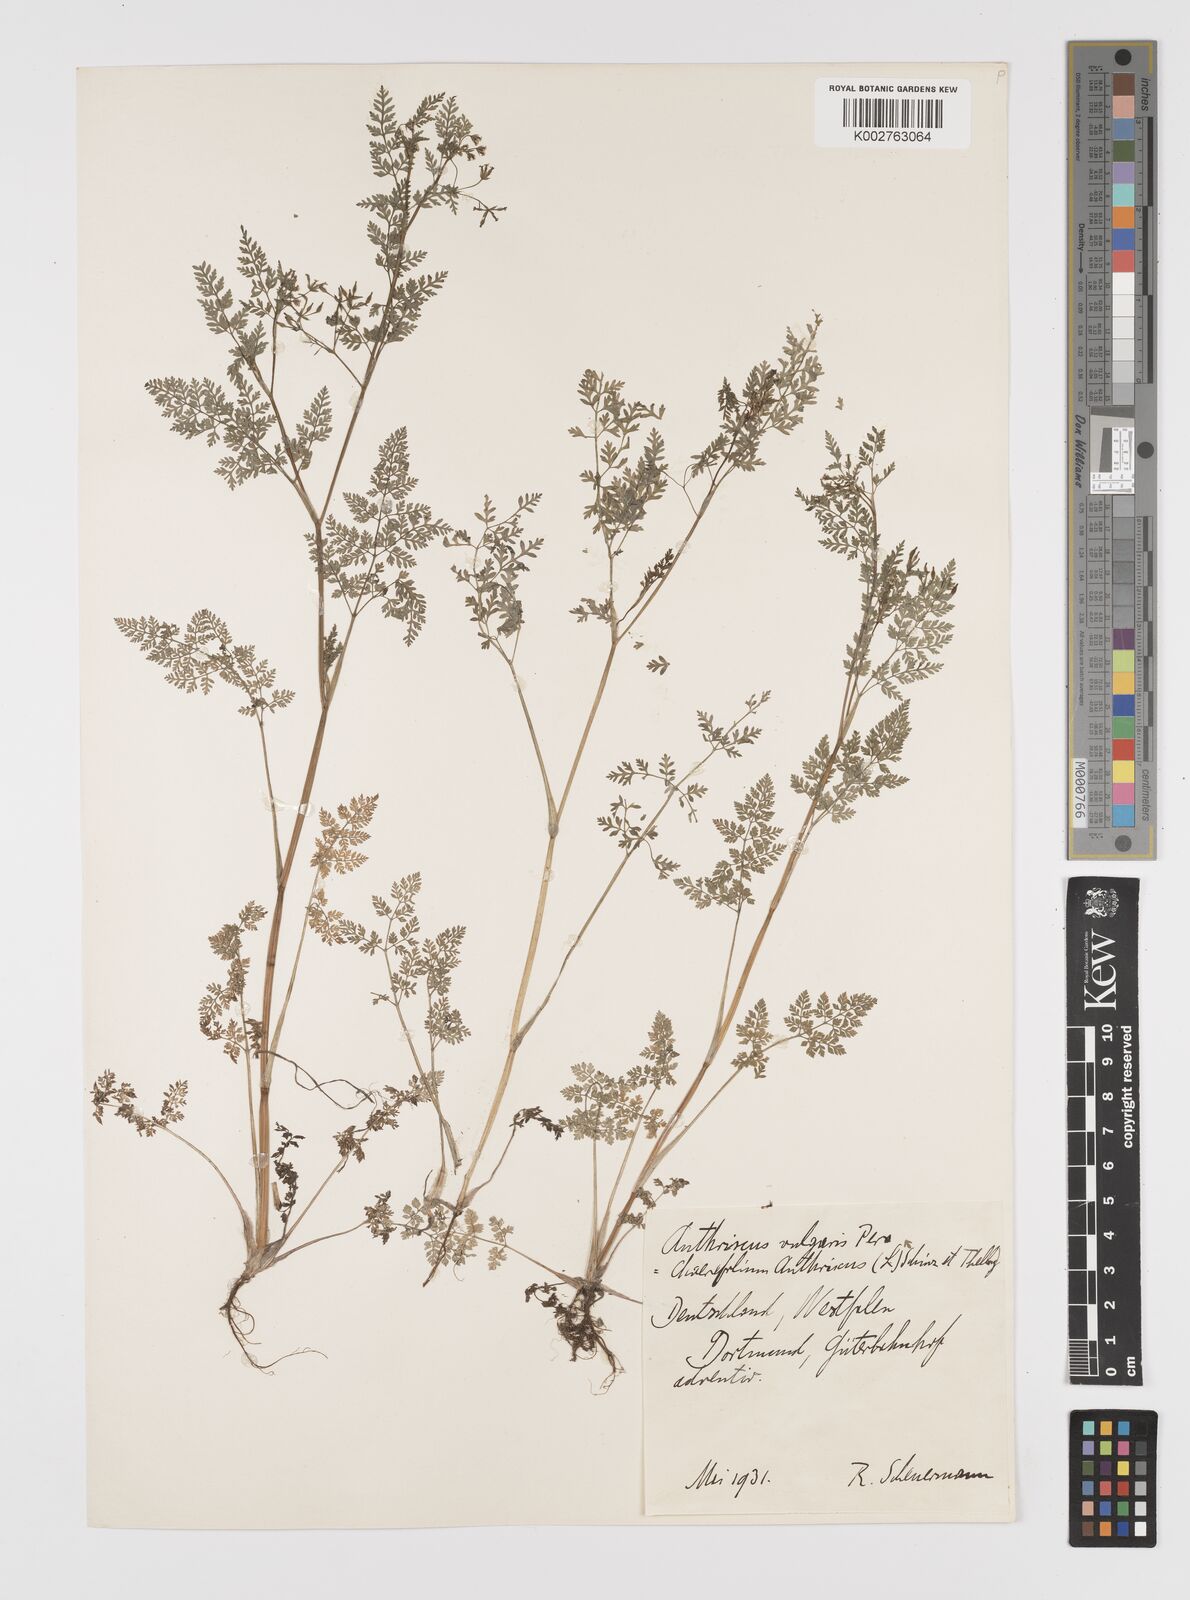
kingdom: Plantae
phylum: Tracheophyta
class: Magnoliopsida
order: Apiales
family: Apiaceae
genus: Anthriscus
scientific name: Anthriscus caucalis
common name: Bur chervil
